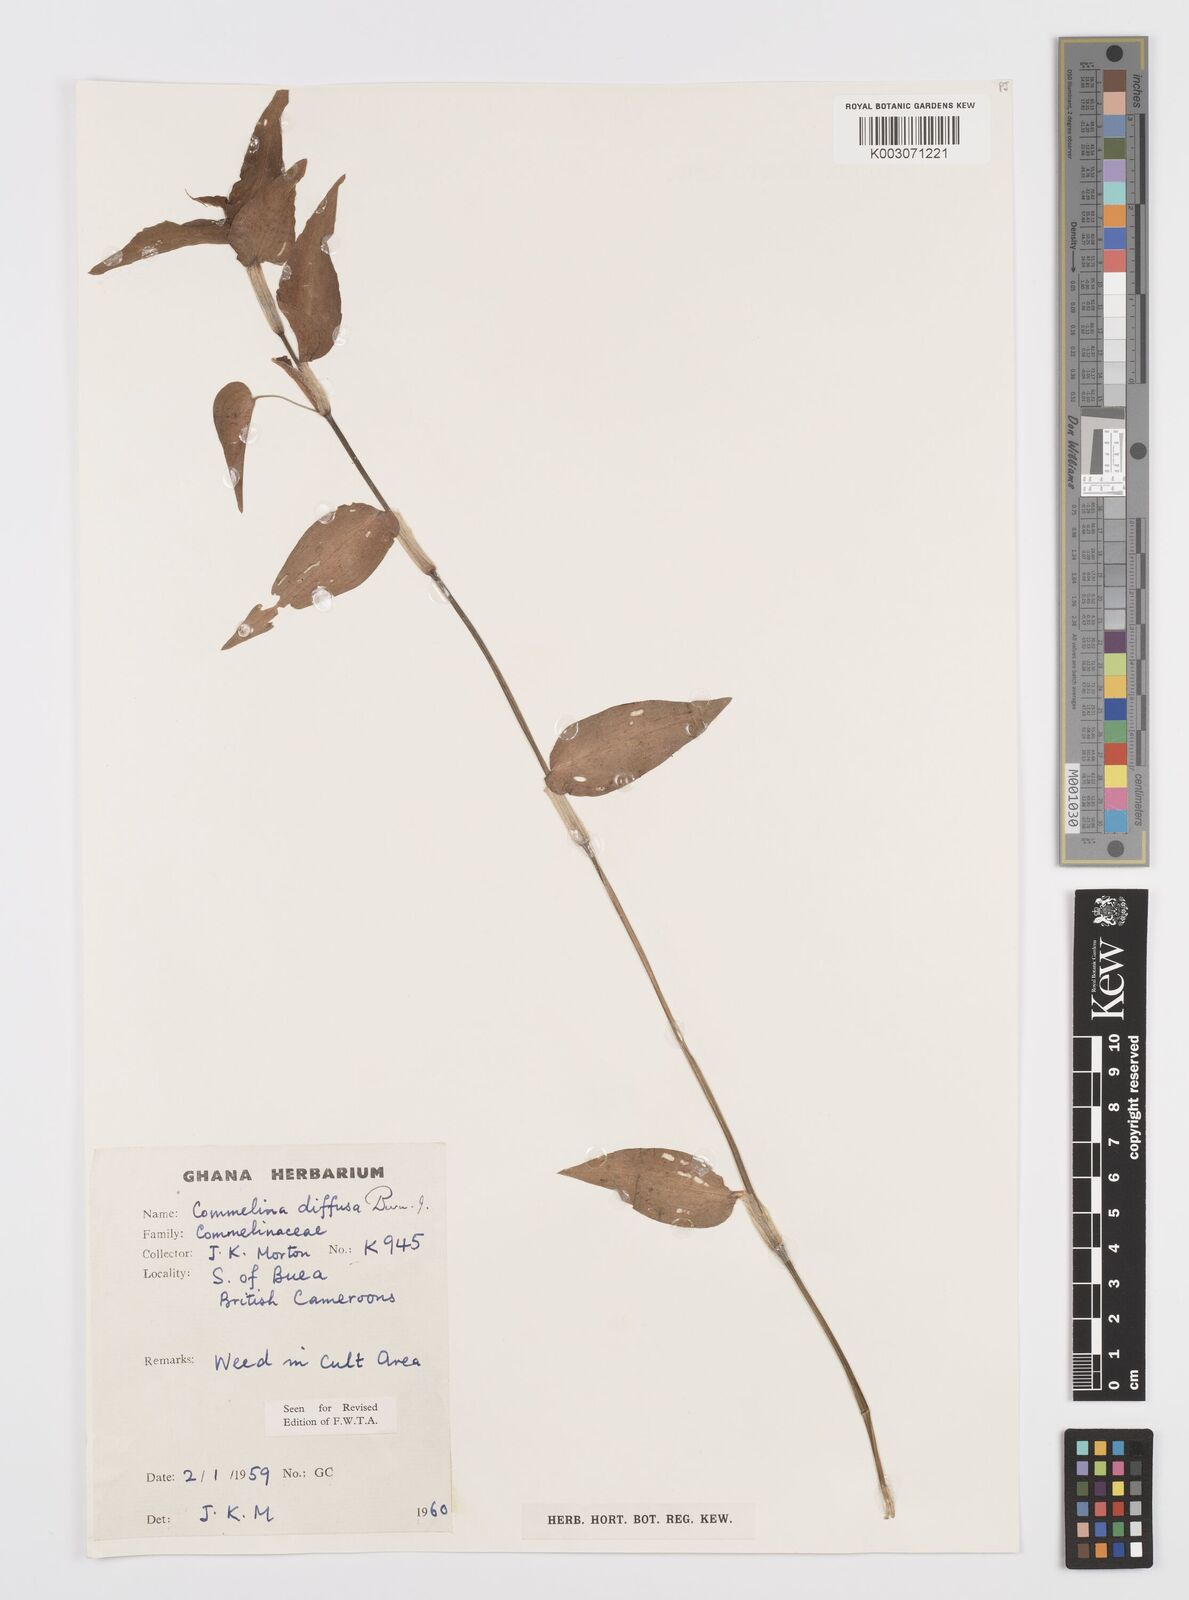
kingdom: Plantae
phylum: Tracheophyta
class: Liliopsida
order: Commelinales
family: Commelinaceae
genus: Commelina
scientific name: Commelina diffusa
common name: Climbing dayflower
